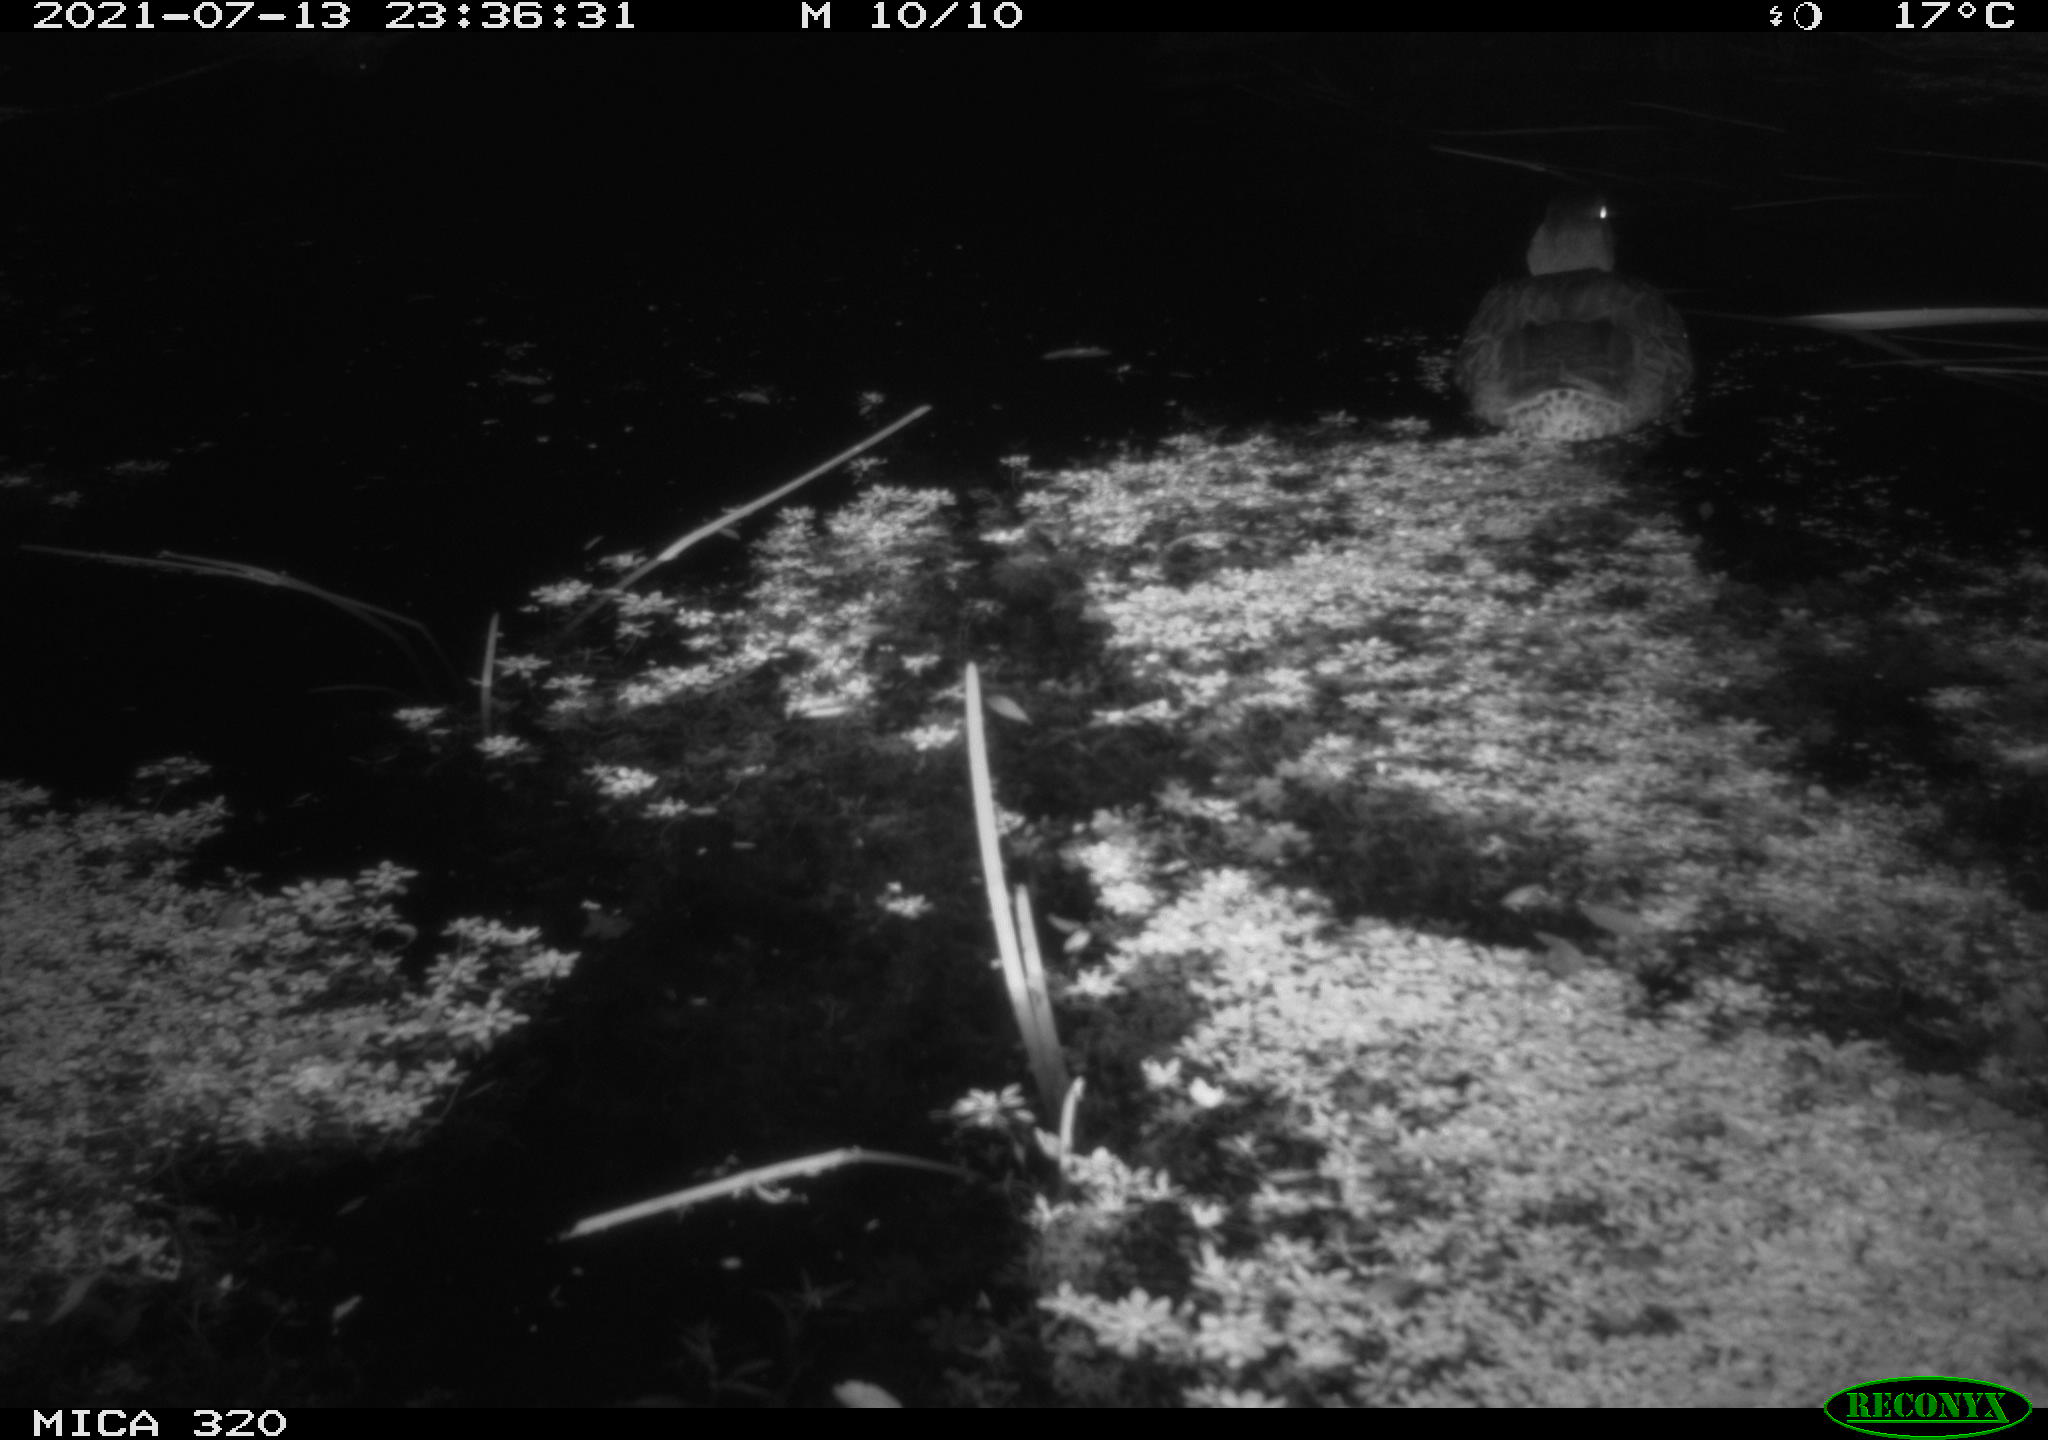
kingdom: Animalia
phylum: Chordata
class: Aves
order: Anseriformes
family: Anatidae
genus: Anas
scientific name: Anas platyrhynchos
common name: Mallard
